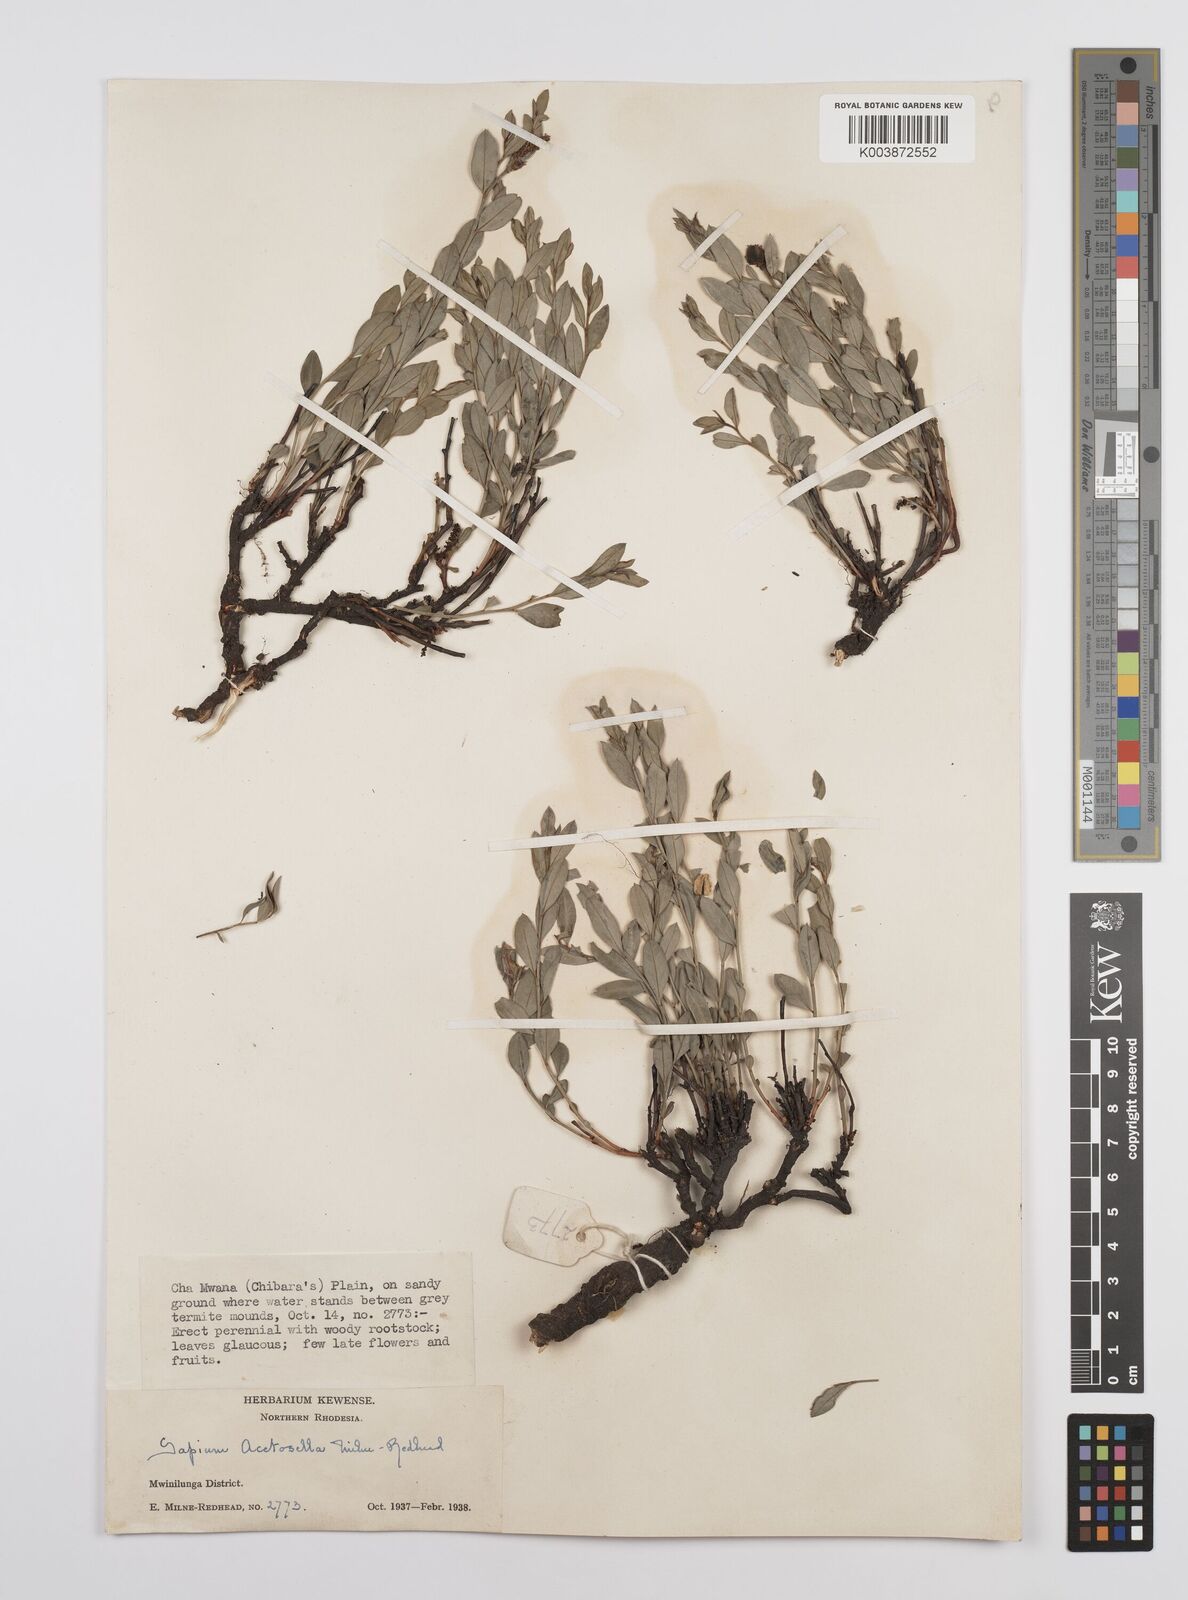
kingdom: Plantae
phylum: Tracheophyta
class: Magnoliopsida
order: Malpighiales
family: Euphorbiaceae
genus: Microstachys
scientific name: Microstachys acetosella
